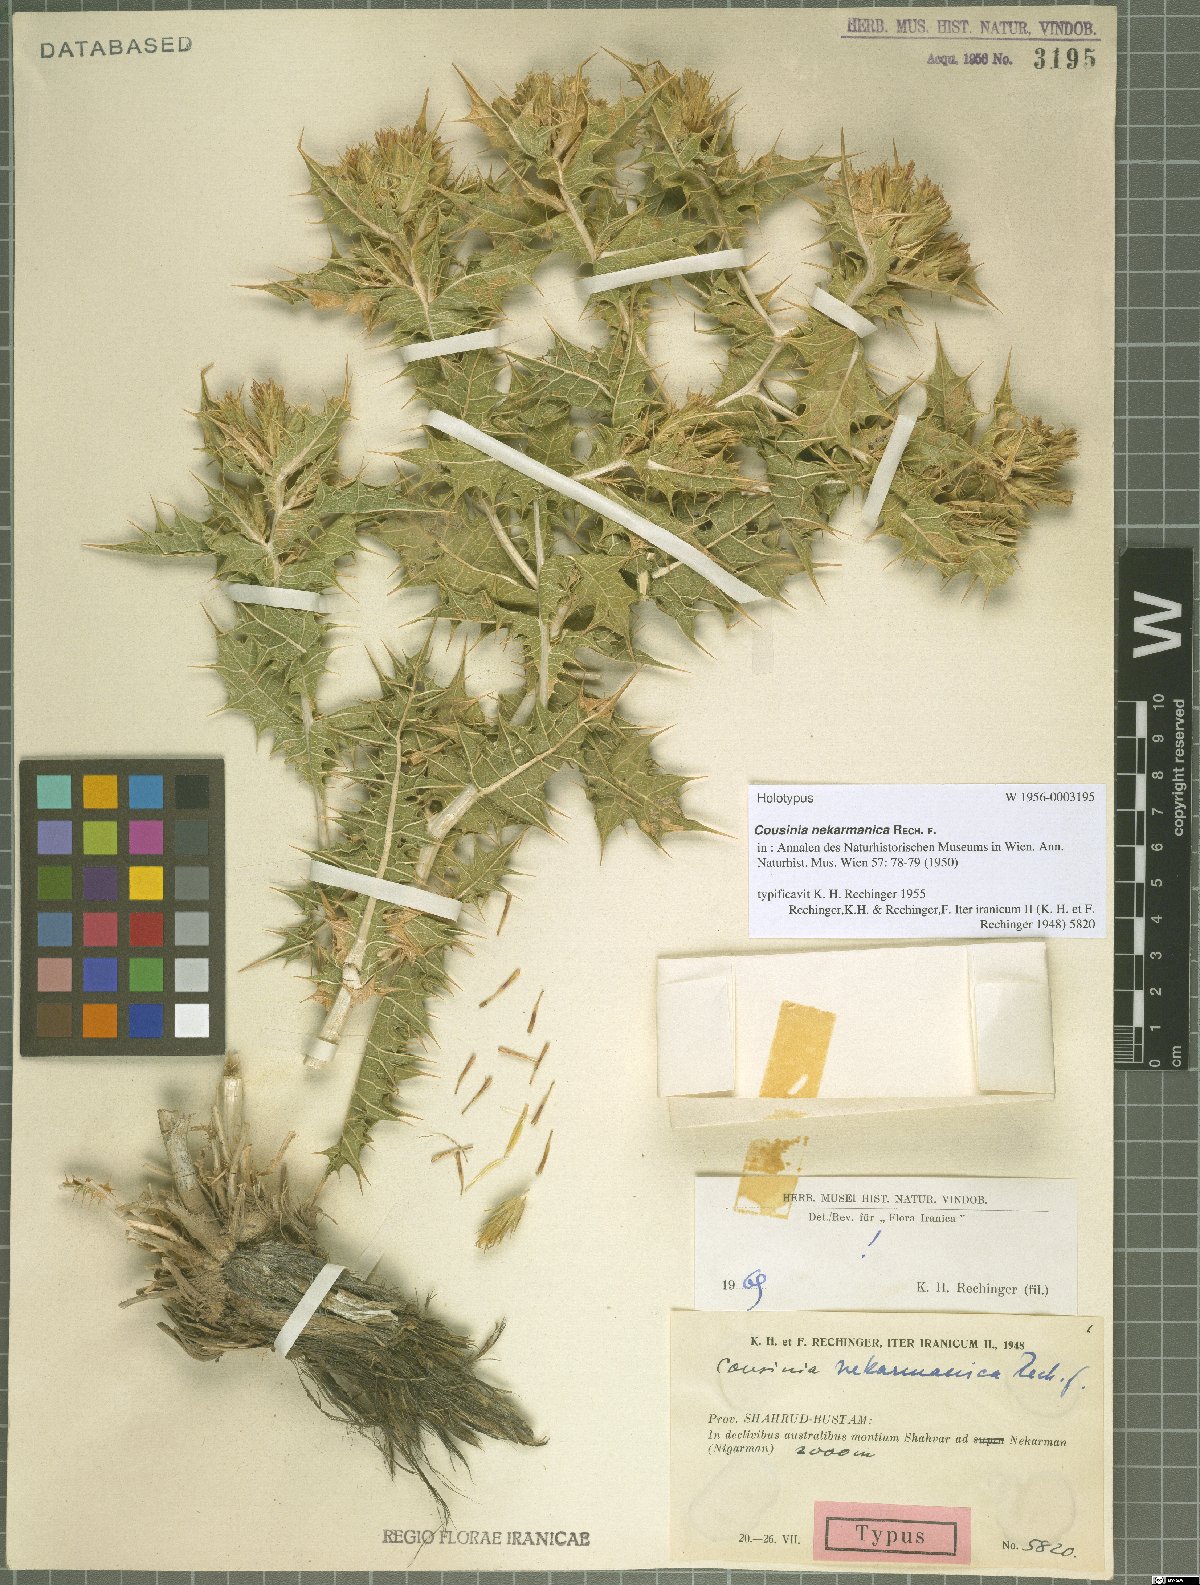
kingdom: Plantae
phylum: Tracheophyta
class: Magnoliopsida
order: Asterales
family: Asteraceae
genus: Cousinia
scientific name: Cousinia alexeenkoana
